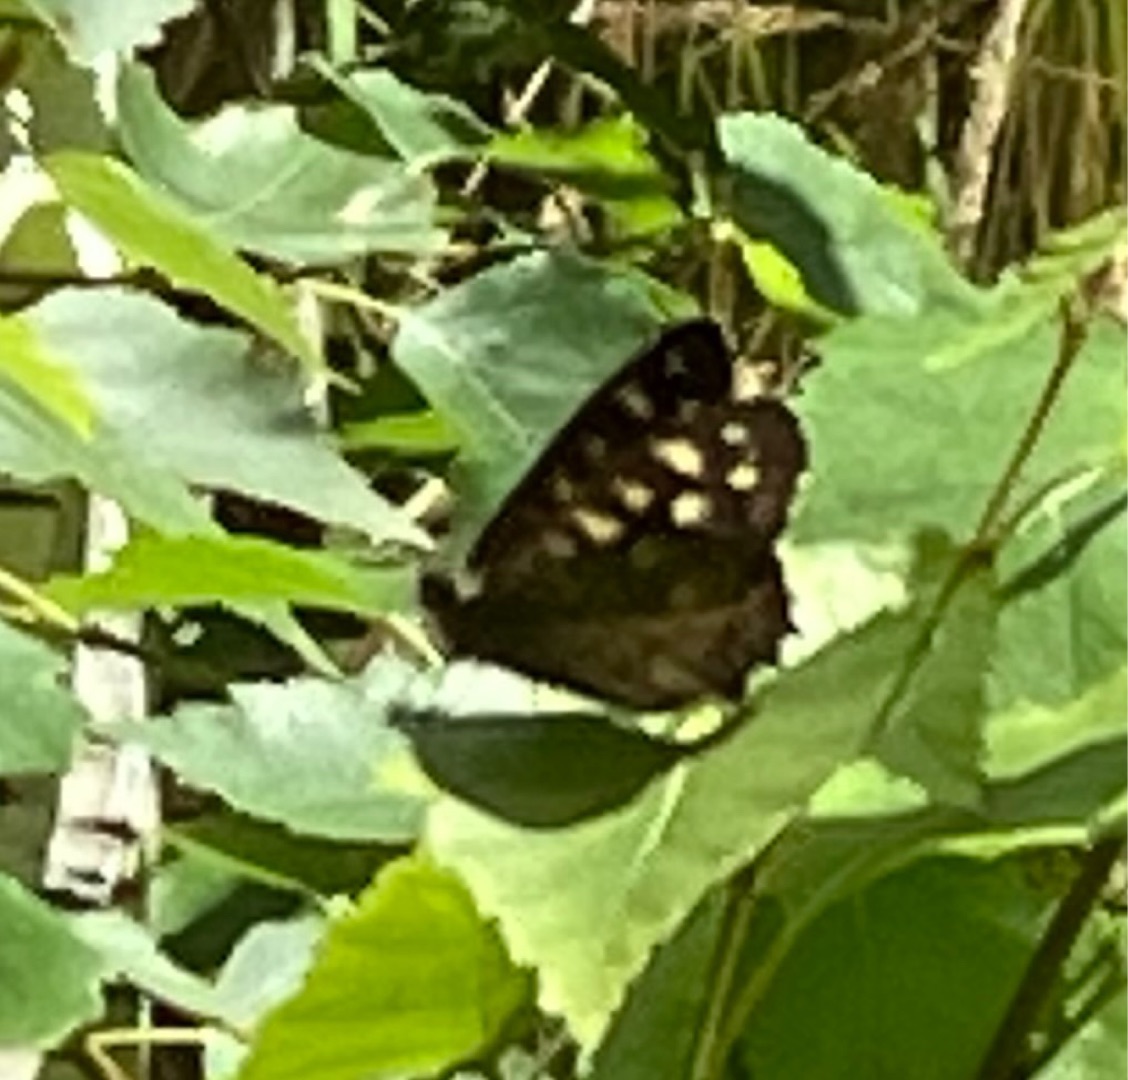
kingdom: Animalia
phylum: Arthropoda
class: Insecta
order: Lepidoptera
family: Nymphalidae
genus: Pararge
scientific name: Pararge aegeria
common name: Skovrandøje
